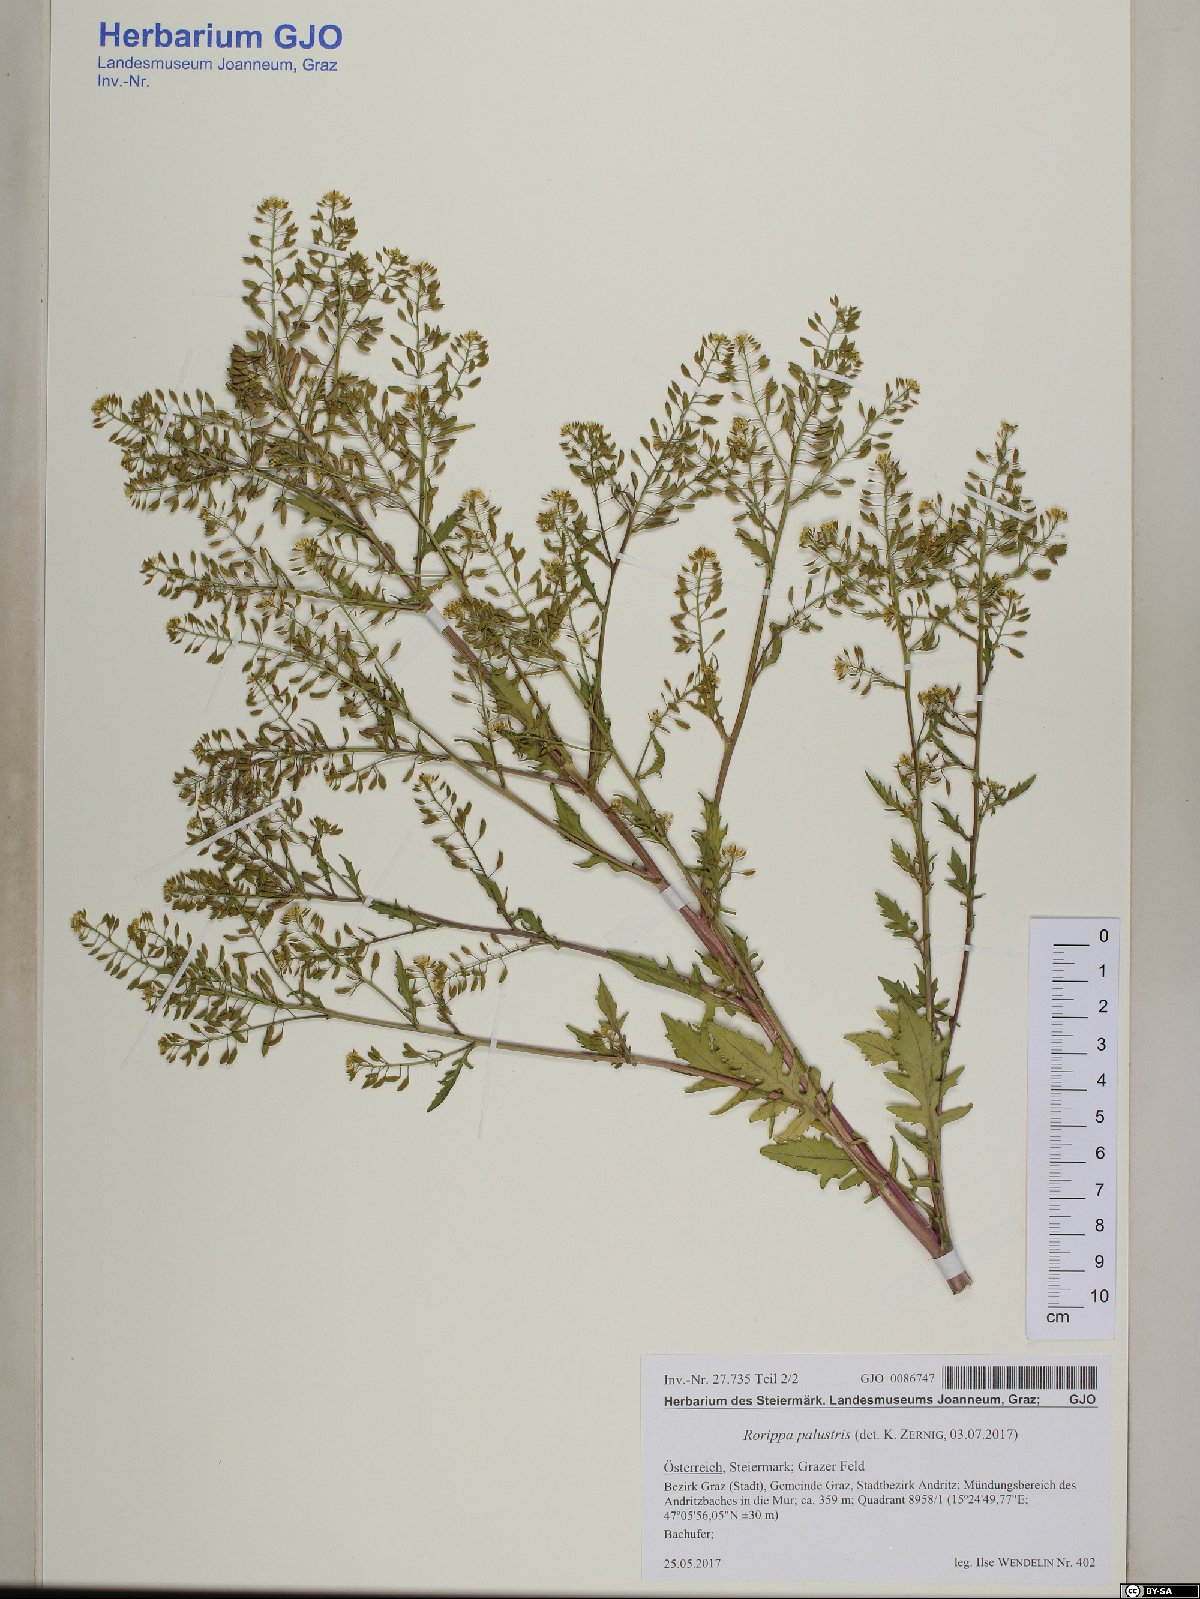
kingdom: Plantae
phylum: Tracheophyta
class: Magnoliopsida
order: Brassicales
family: Brassicaceae
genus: Rorippa
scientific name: Rorippa palustris
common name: Marsh yellow-cress
